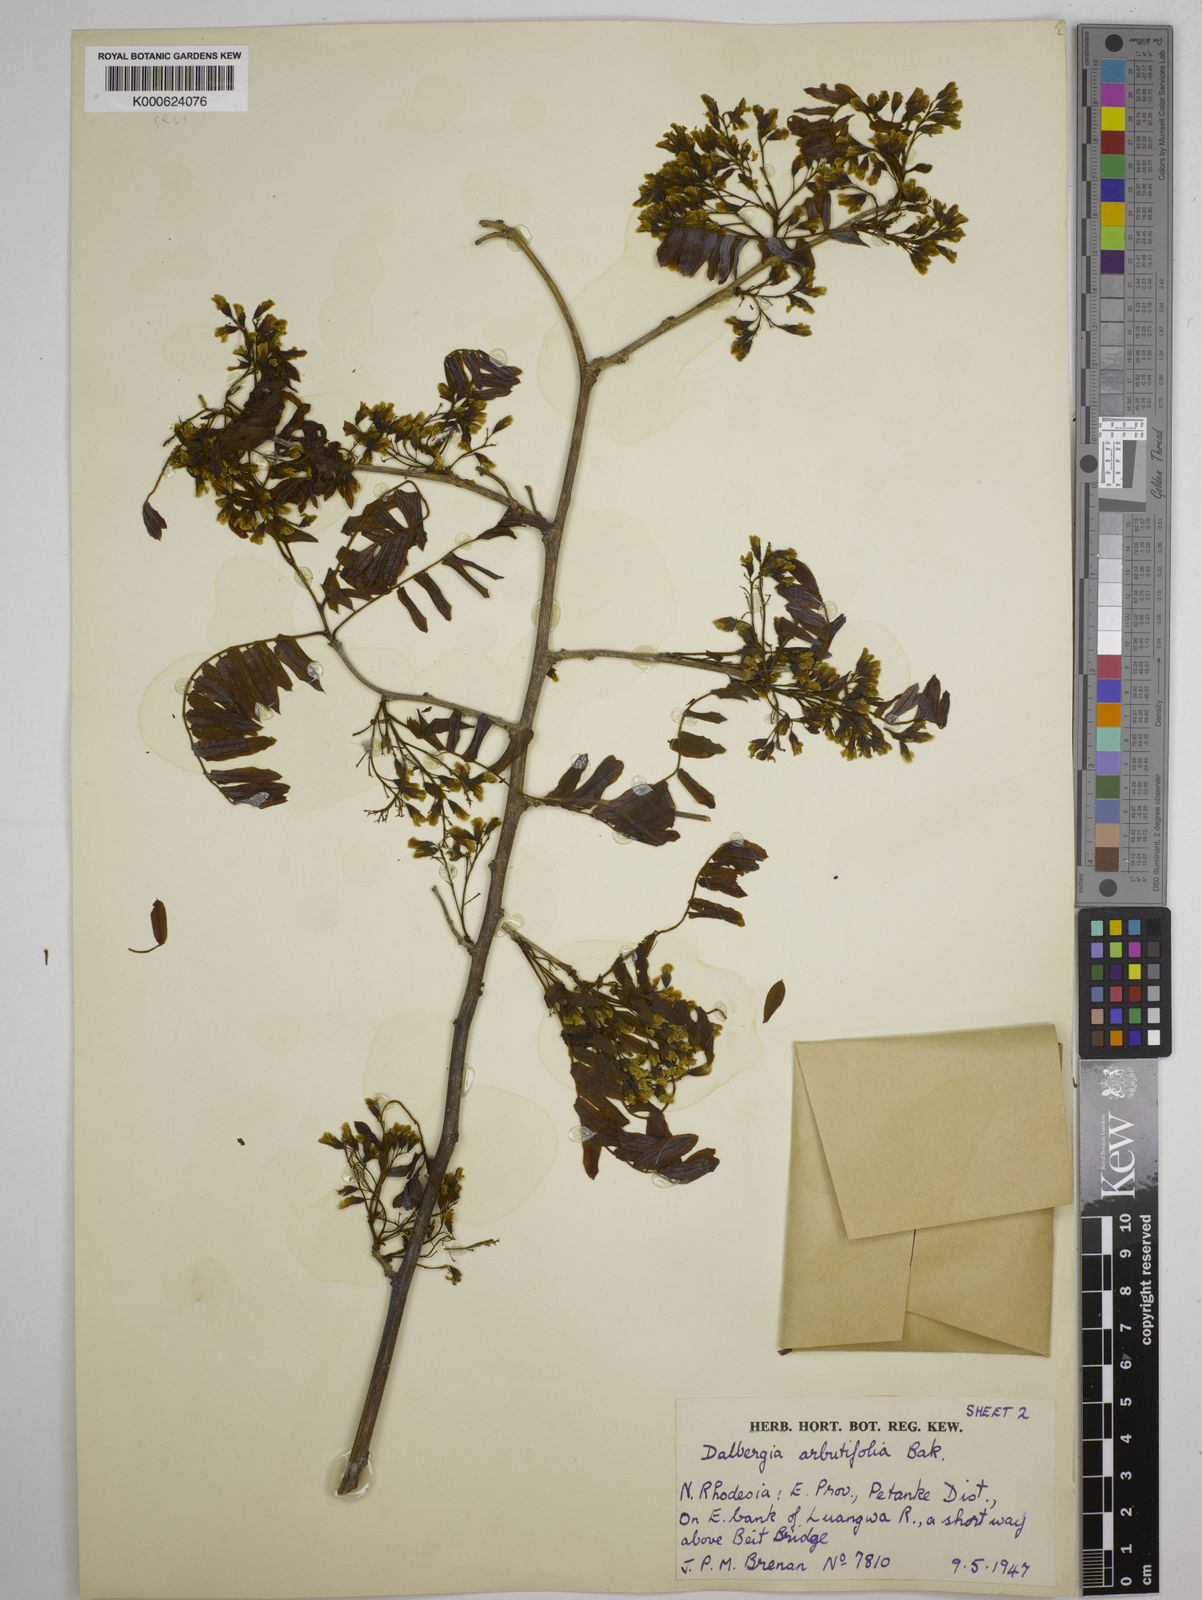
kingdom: Plantae
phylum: Tracheophyta
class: Magnoliopsida
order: Fabales
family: Fabaceae
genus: Dalbergia
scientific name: Dalbergia arbutifolia
